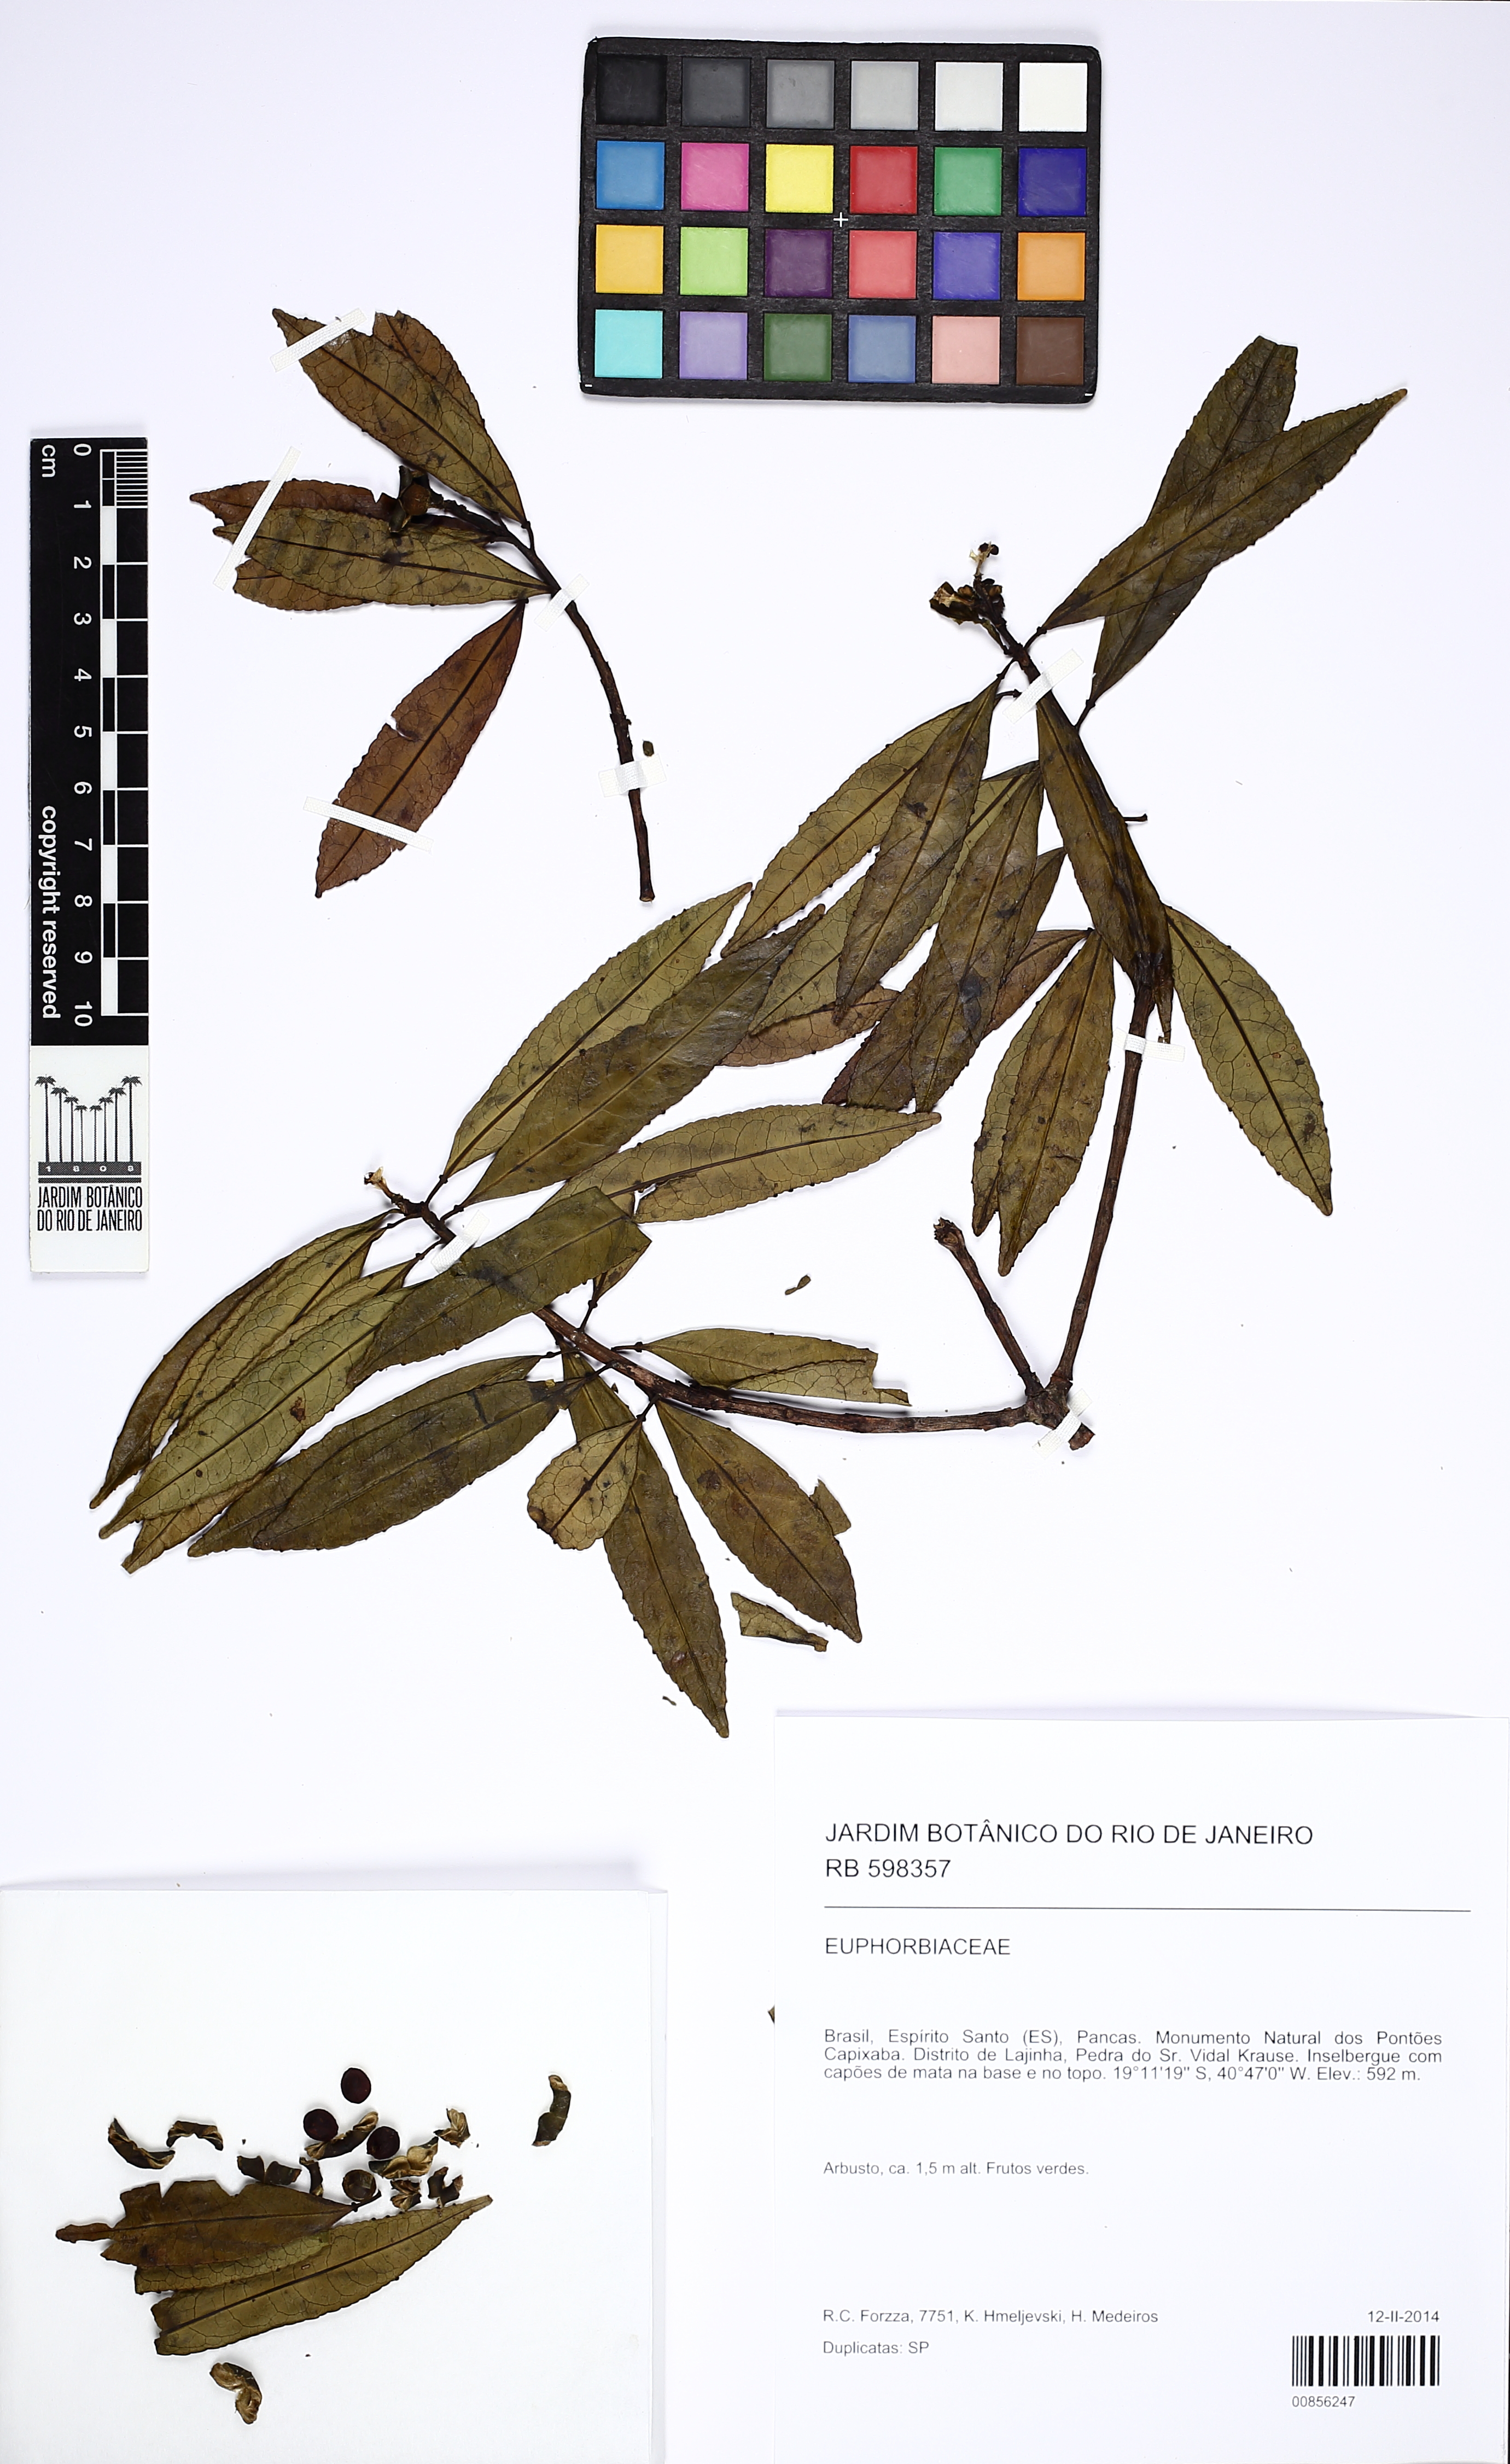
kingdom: Plantae
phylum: Tracheophyta
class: Magnoliopsida
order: Malpighiales
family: Euphorbiaceae
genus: Sapium
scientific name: Sapium
